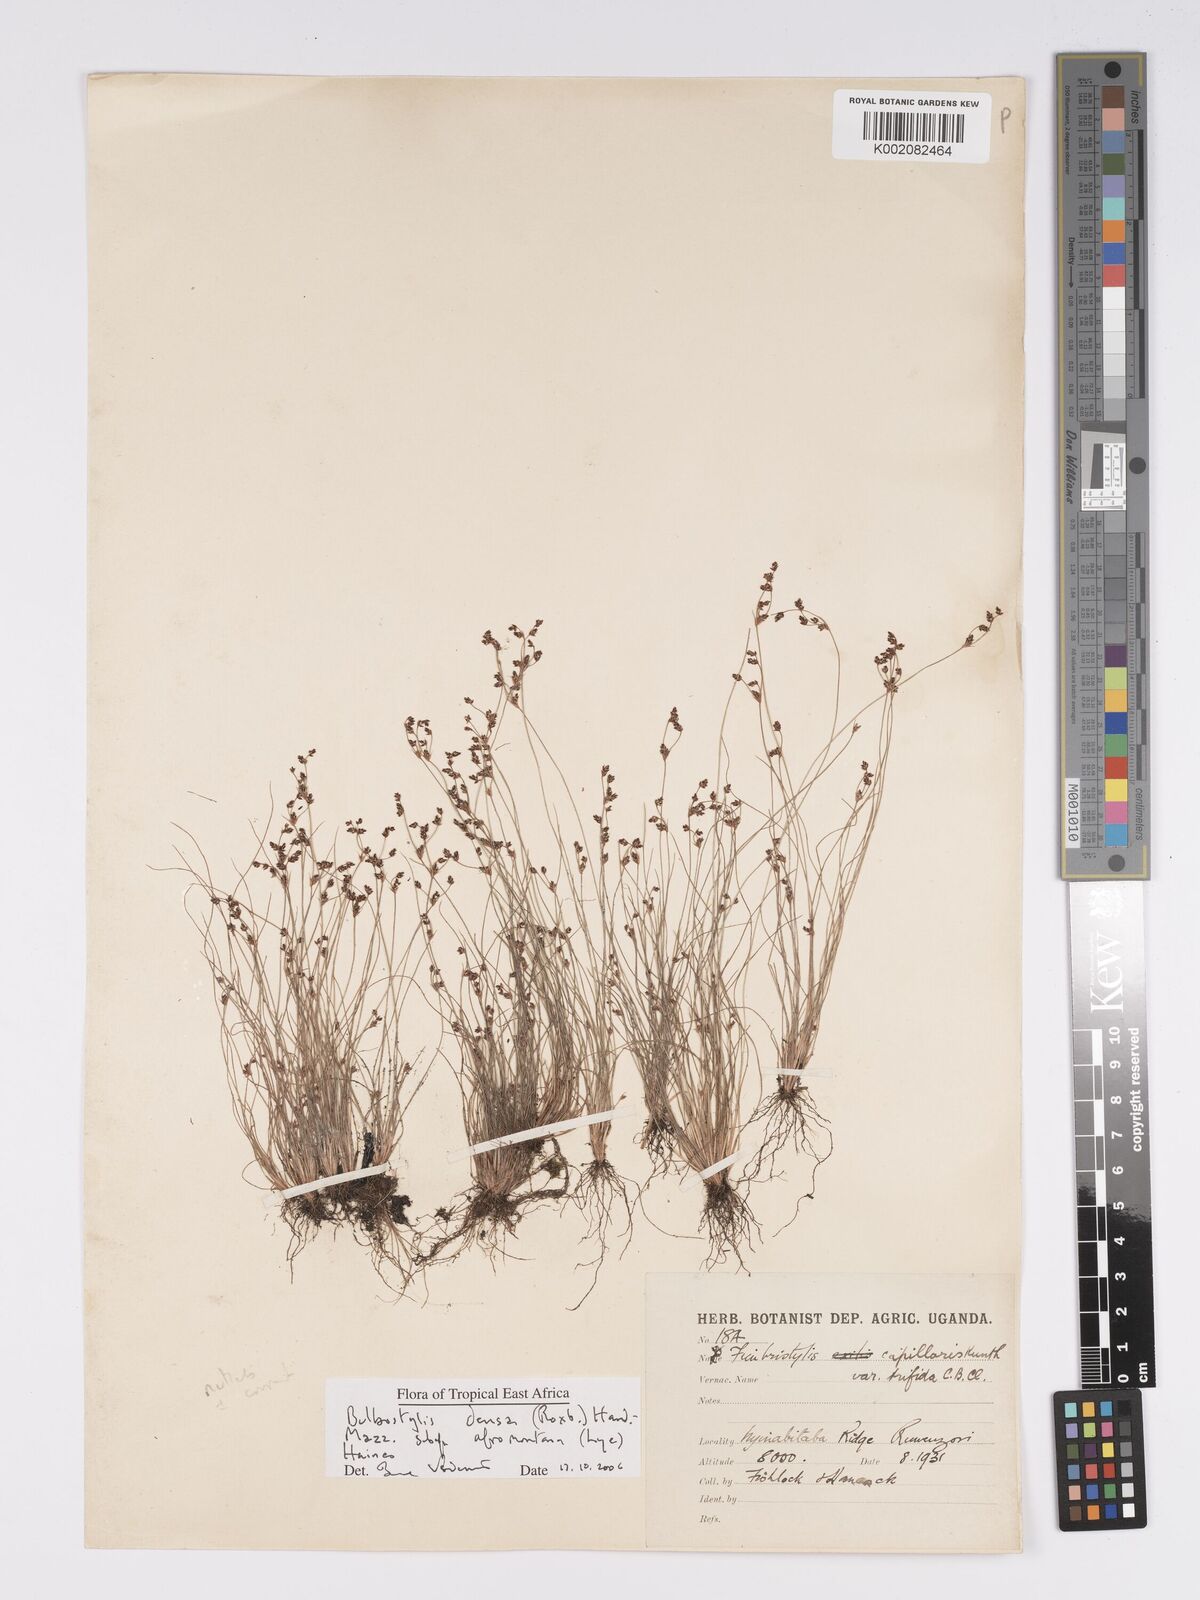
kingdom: Plantae
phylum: Tracheophyta
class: Liliopsida
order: Poales
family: Cyperaceae
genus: Bulbostylis
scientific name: Bulbostylis densa
